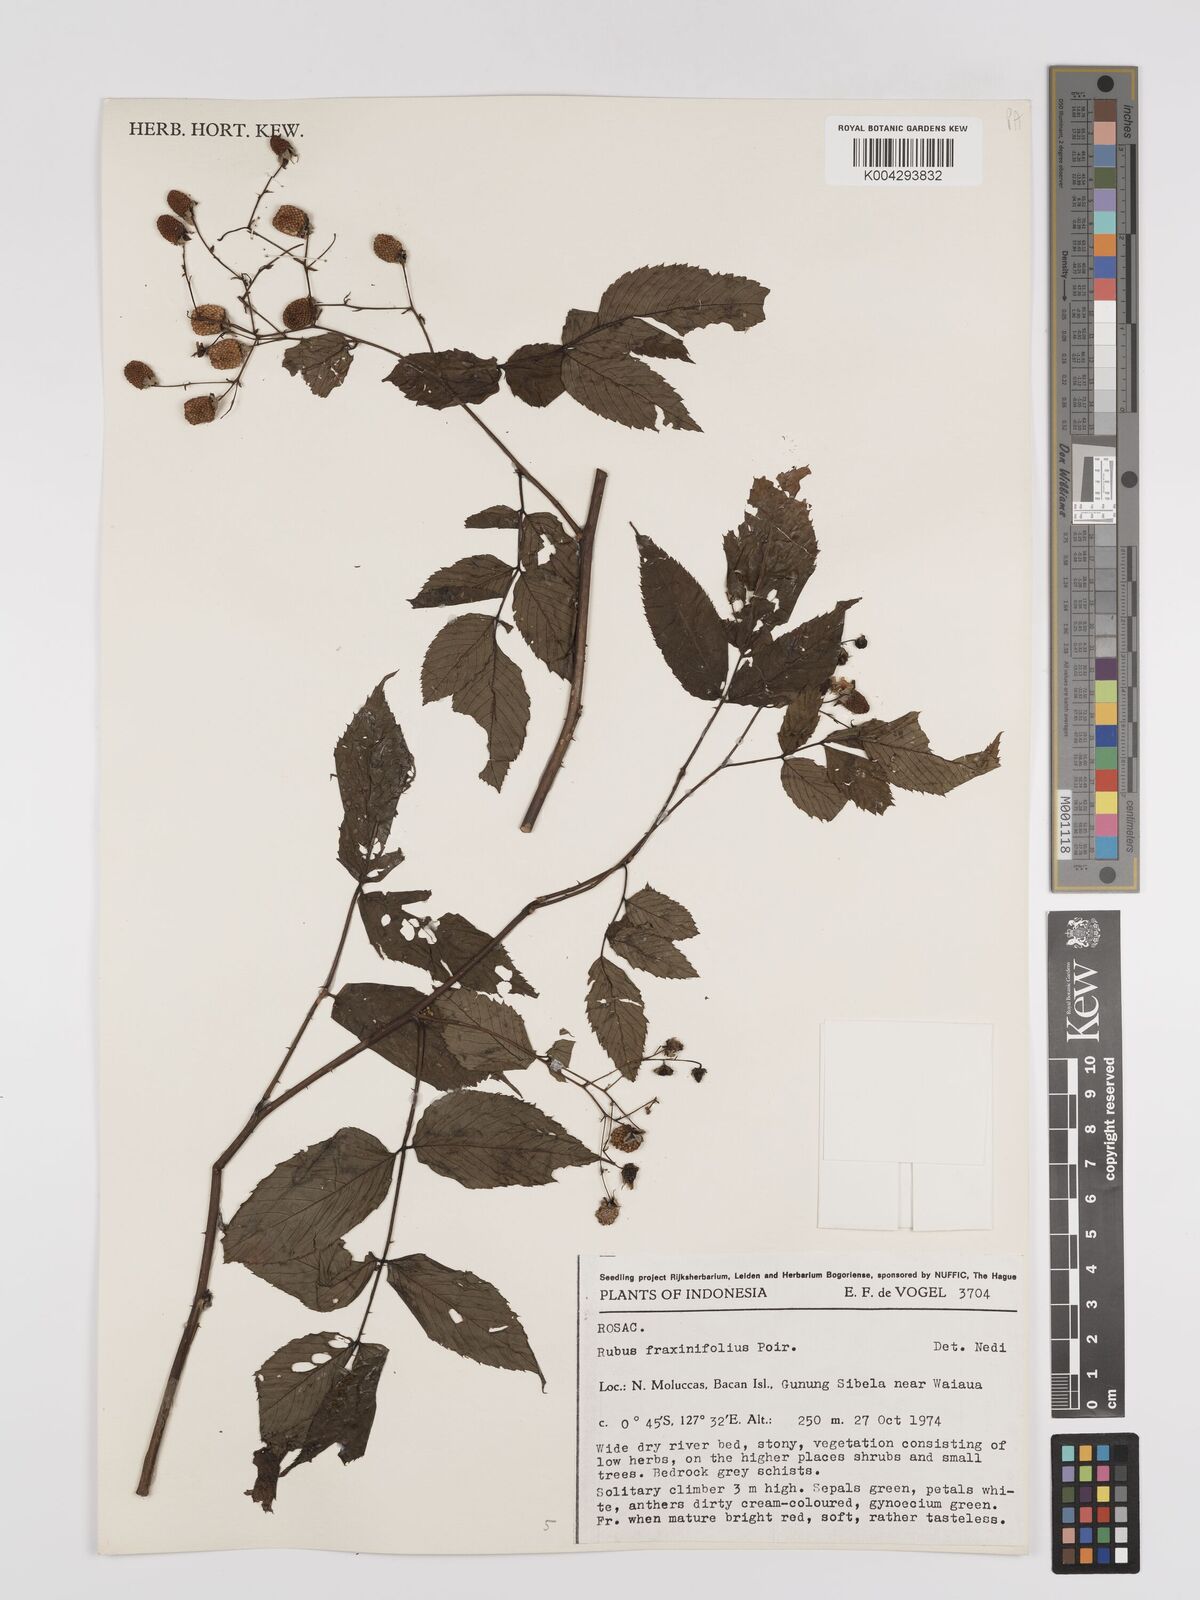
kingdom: Plantae
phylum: Tracheophyta
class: Magnoliopsida
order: Rosales
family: Rosaceae
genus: Rubus
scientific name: Rubus fraxinifolius
